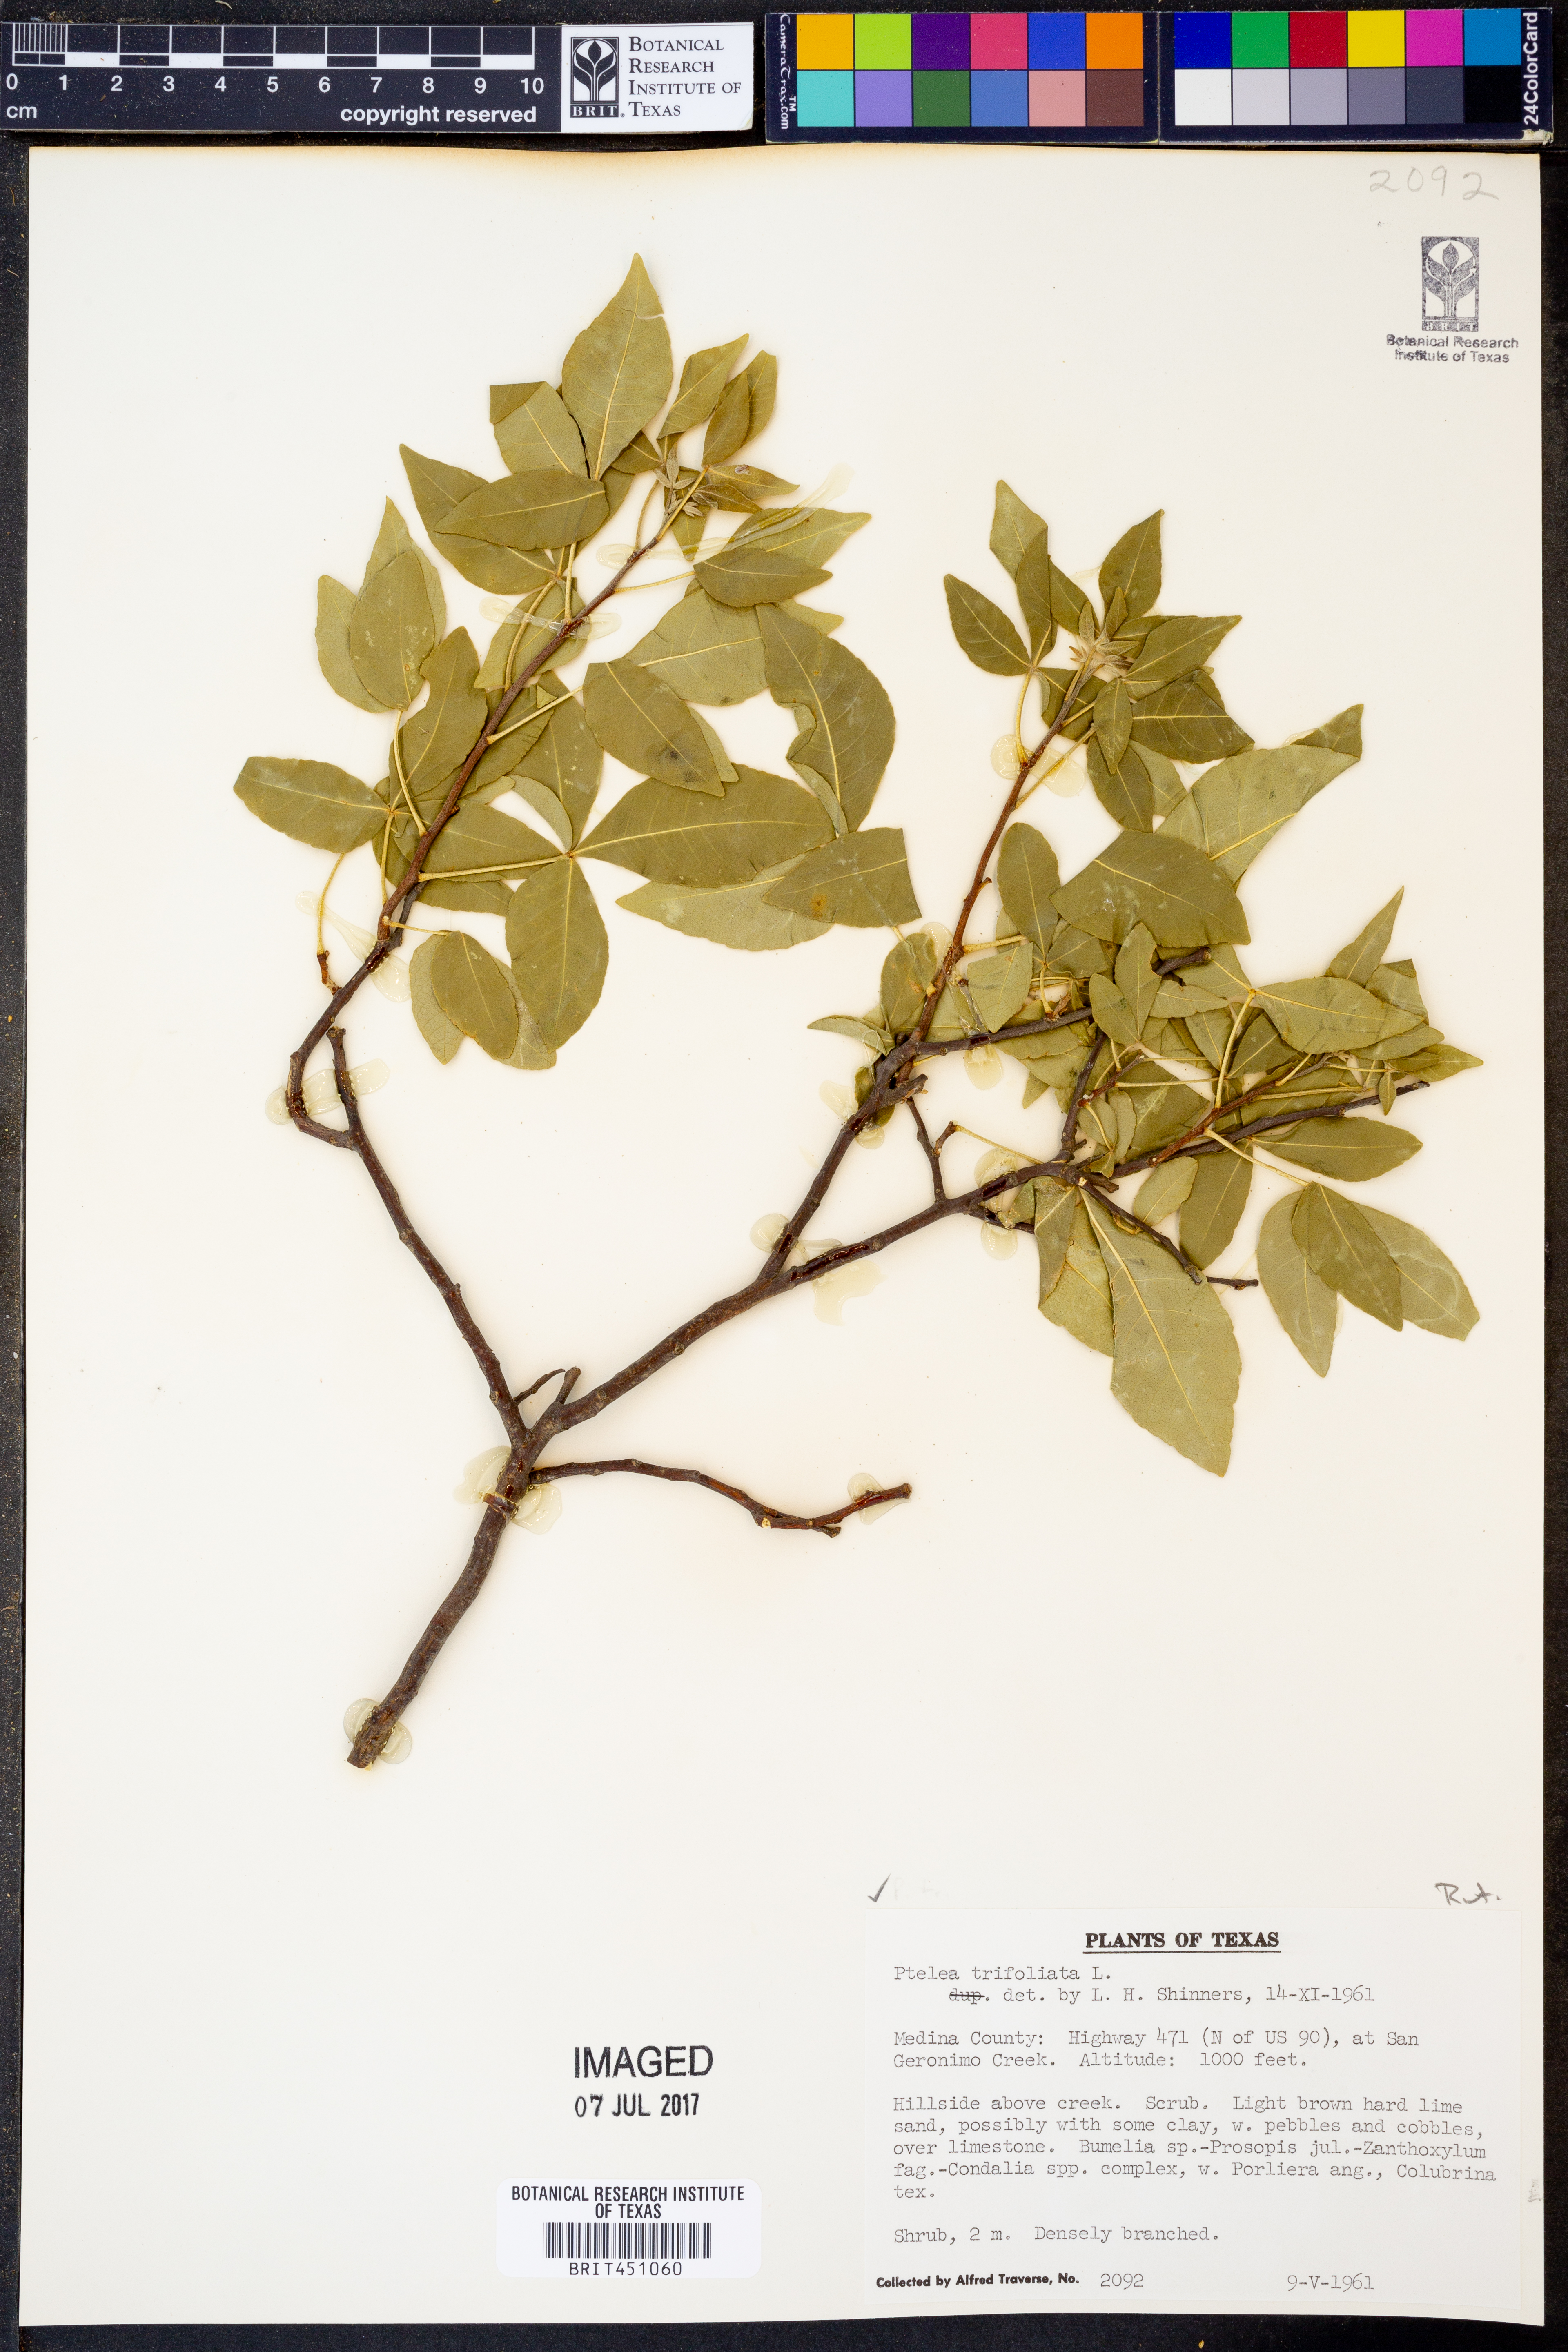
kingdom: Plantae
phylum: Tracheophyta
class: Magnoliopsida
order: Sapindales
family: Rutaceae
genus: Ptelea
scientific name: Ptelea trifoliata
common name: Common hop-tree
